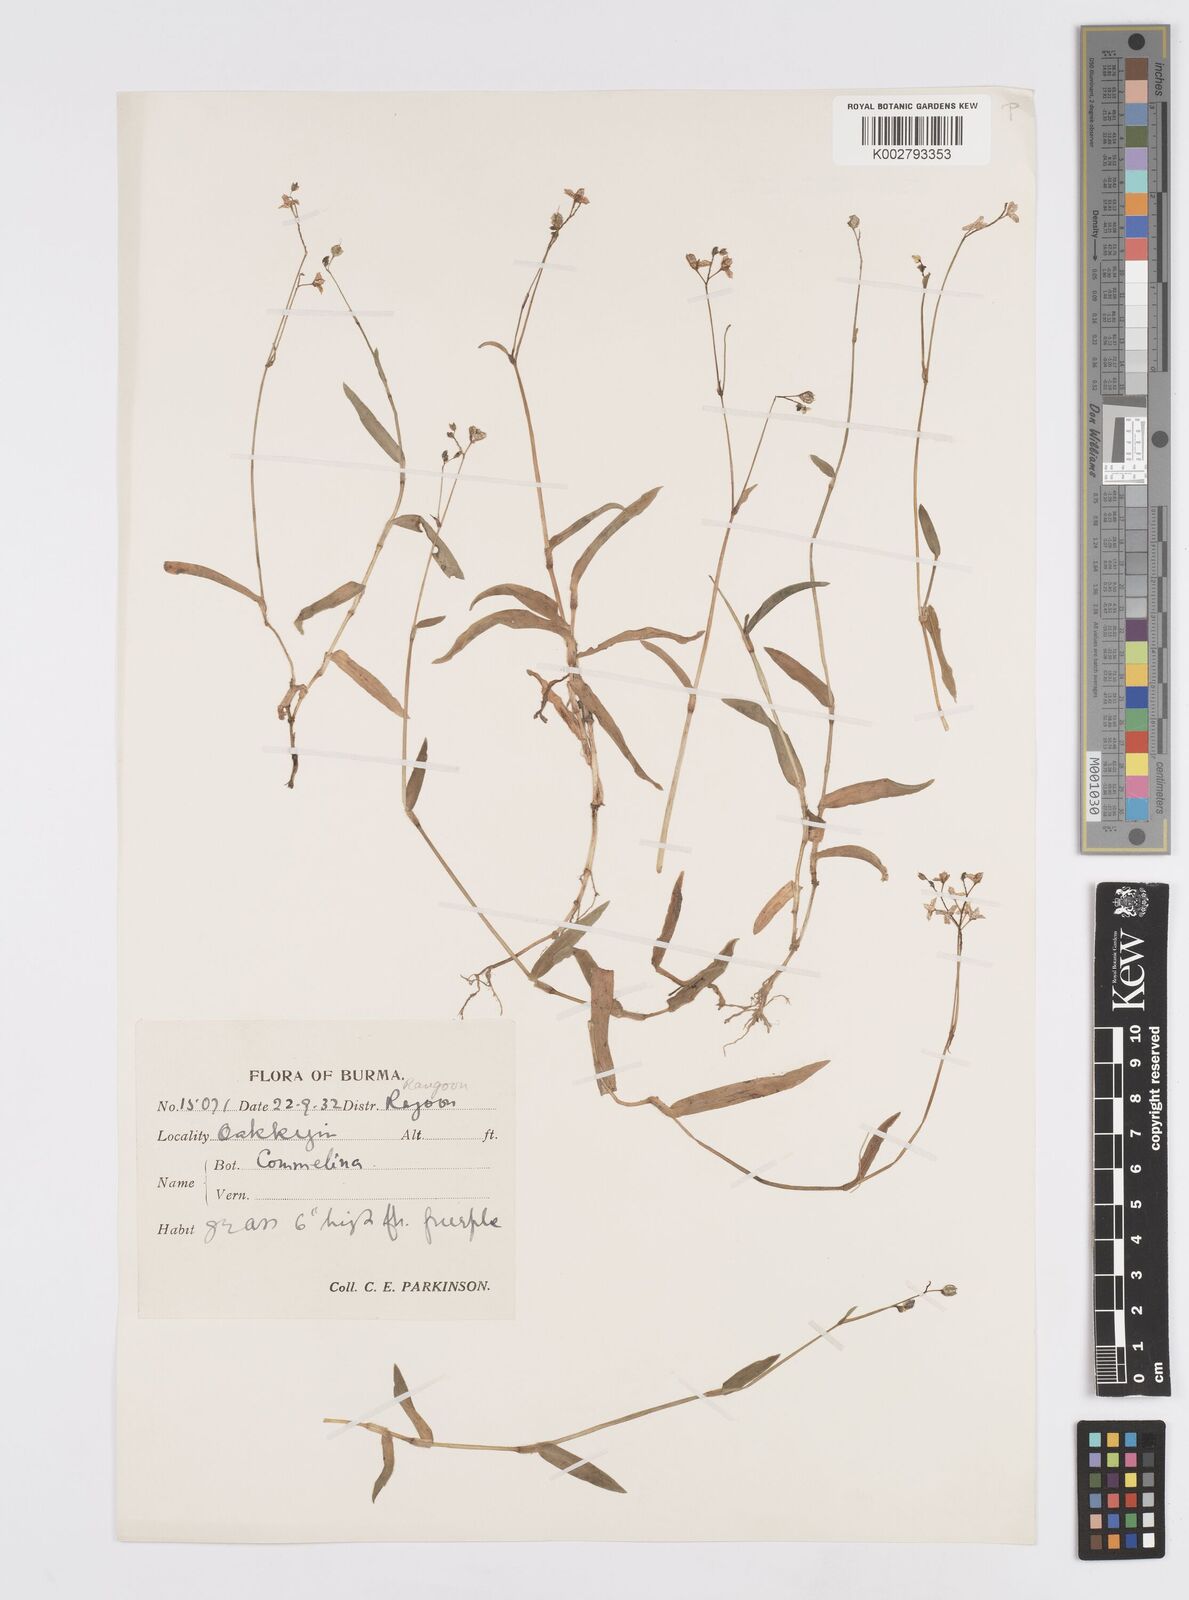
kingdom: Plantae
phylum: Tracheophyta
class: Liliopsida
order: Commelinales
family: Commelinaceae
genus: Murdannia
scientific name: Murdannia
